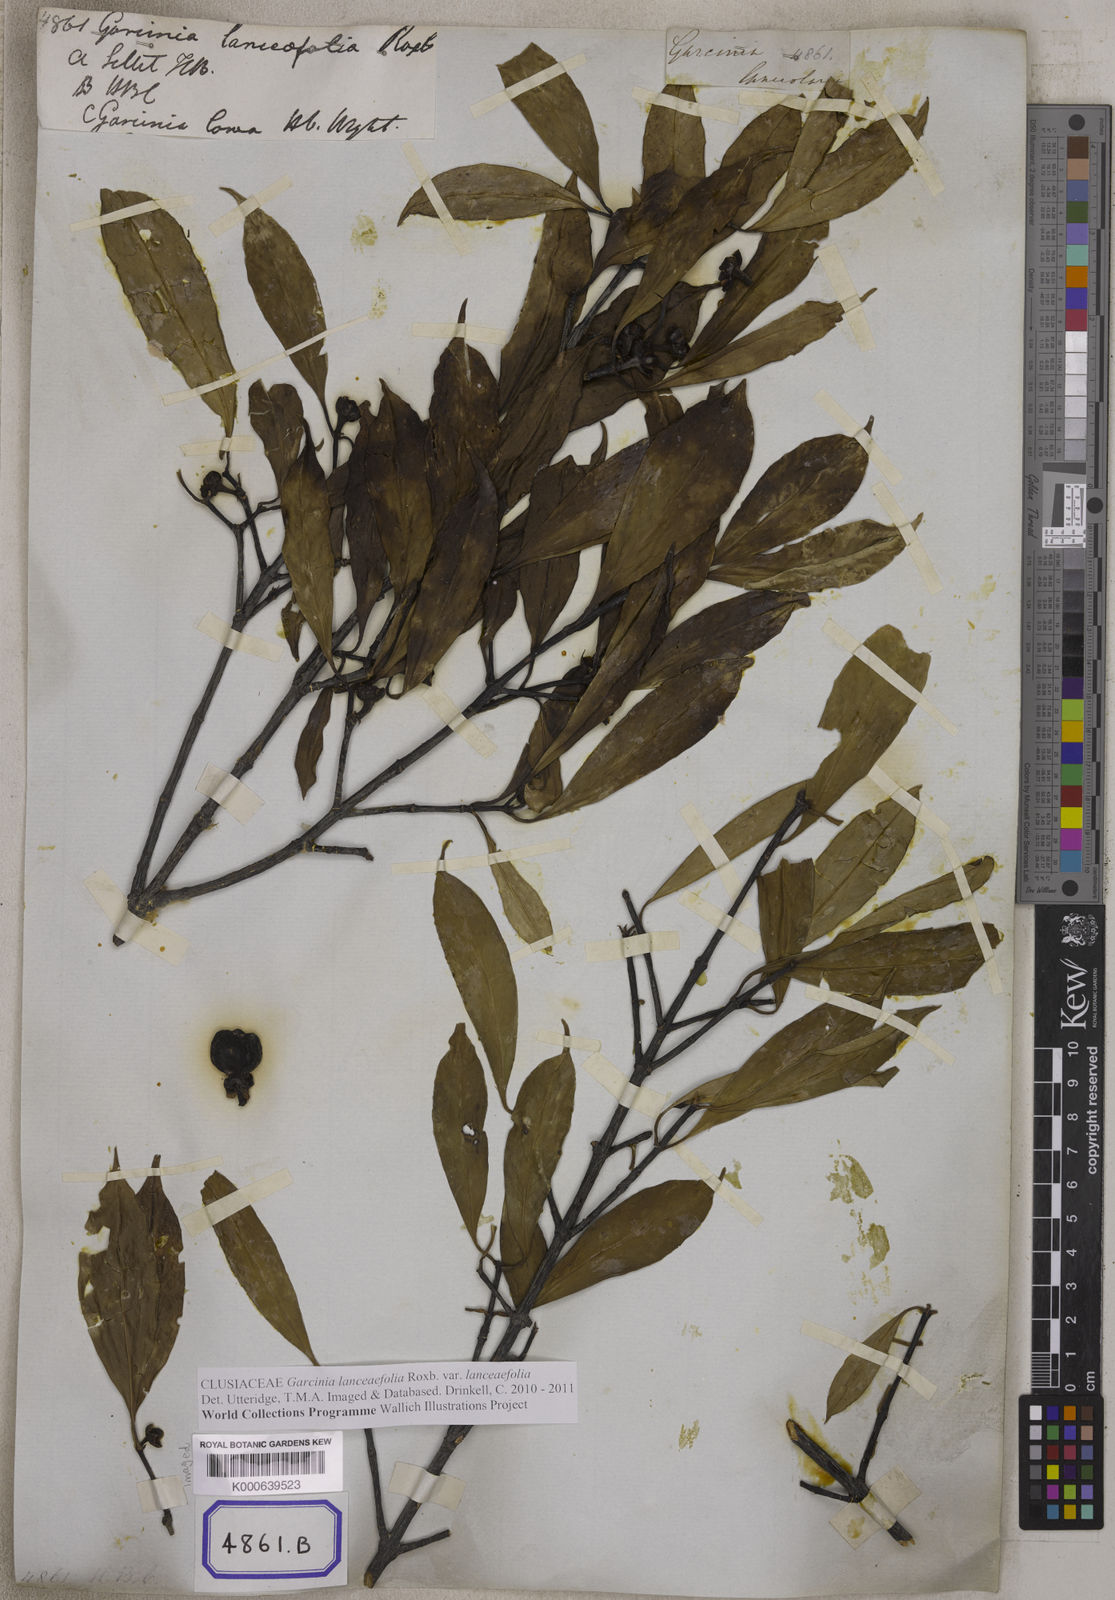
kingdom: Plantae
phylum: Tracheophyta
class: Magnoliopsida
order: Malpighiales
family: Clusiaceae
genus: Garcinia
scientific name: Garcinia lanceifolia
